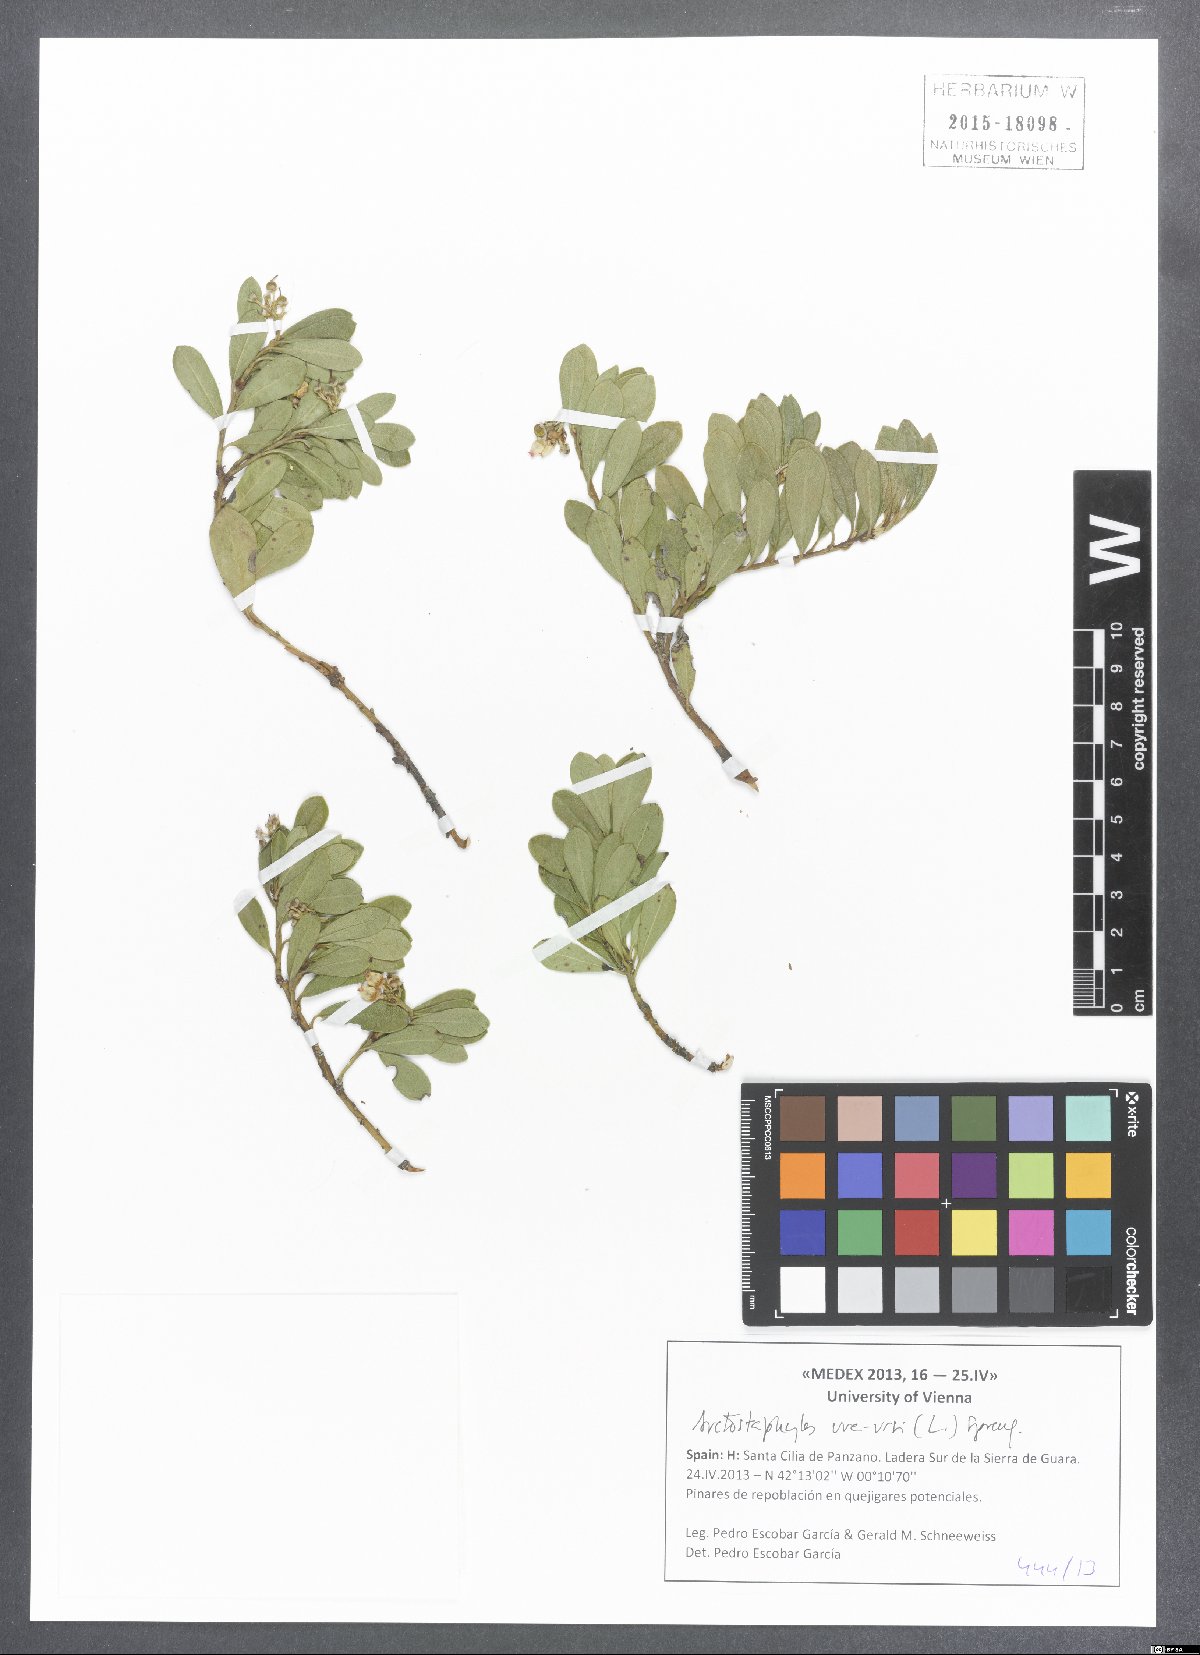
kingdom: Plantae
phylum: Tracheophyta
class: Magnoliopsida
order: Ericales
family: Ericaceae
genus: Arctostaphylos
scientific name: Arctostaphylos uva-ursi
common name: Bearberry
